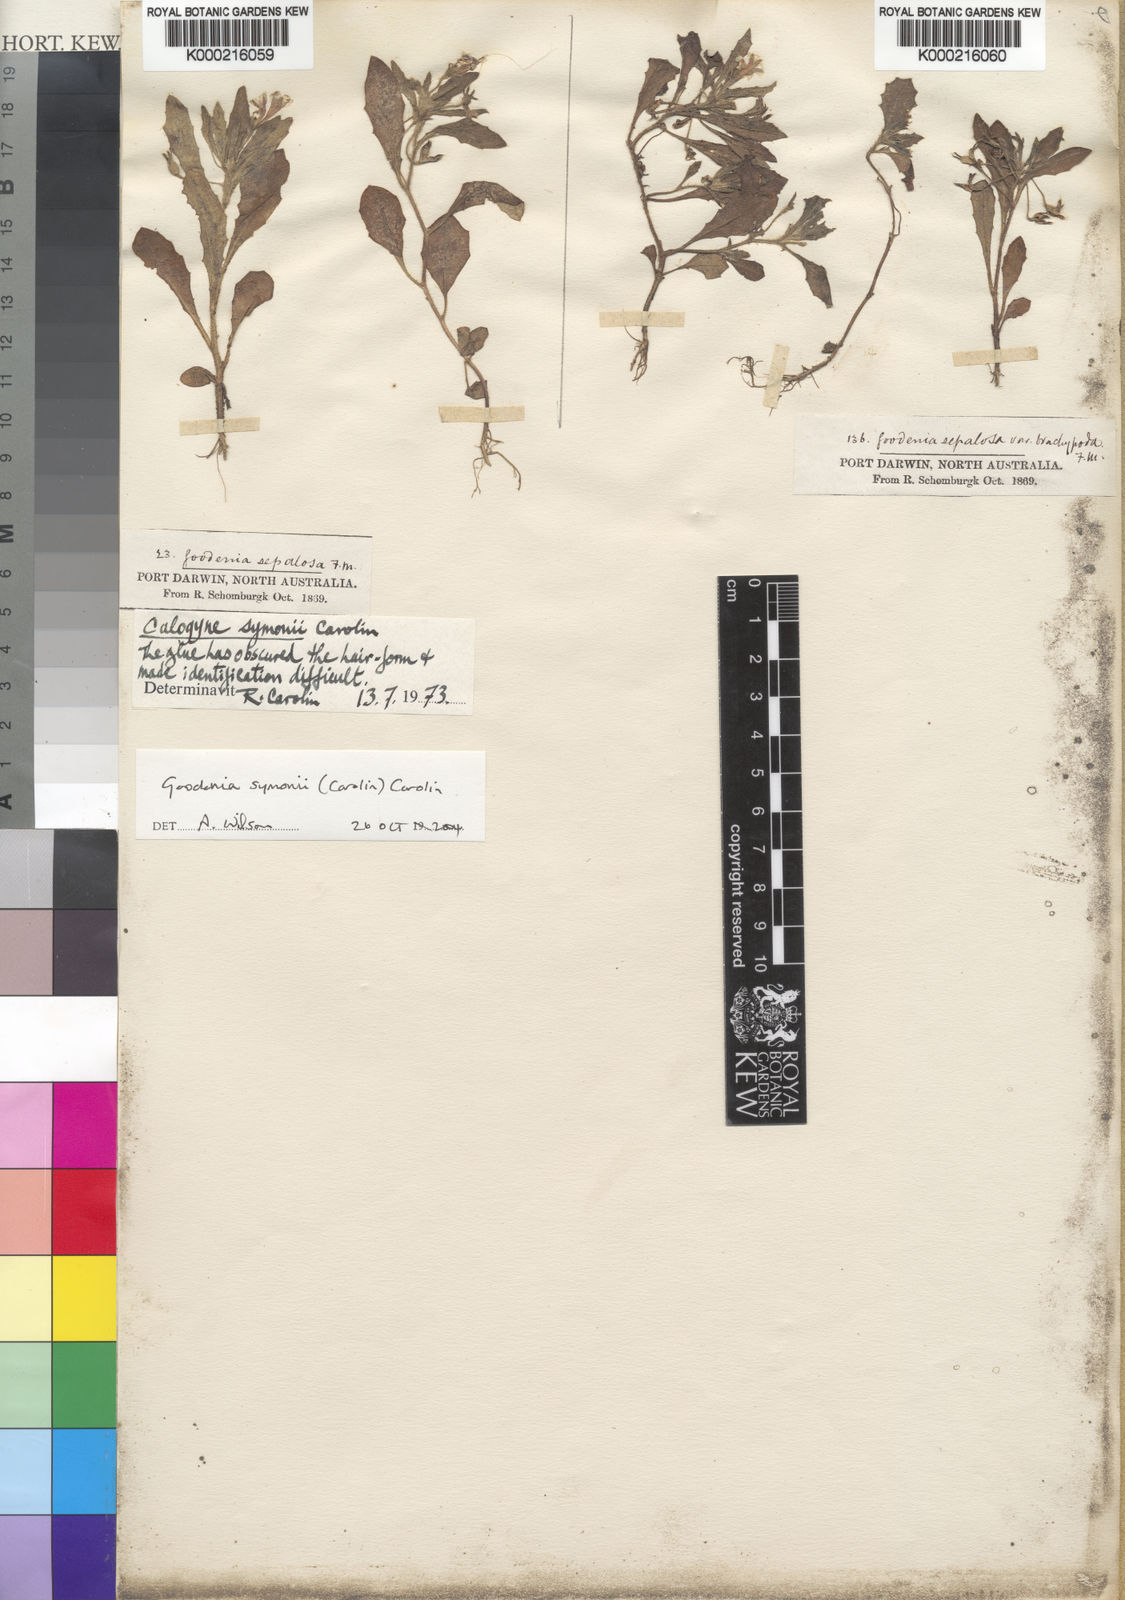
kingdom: Plantae
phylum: Tracheophyta
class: Magnoliopsida
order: Asterales
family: Goodeniaceae
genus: Goodenia
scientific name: Goodenia symonii
